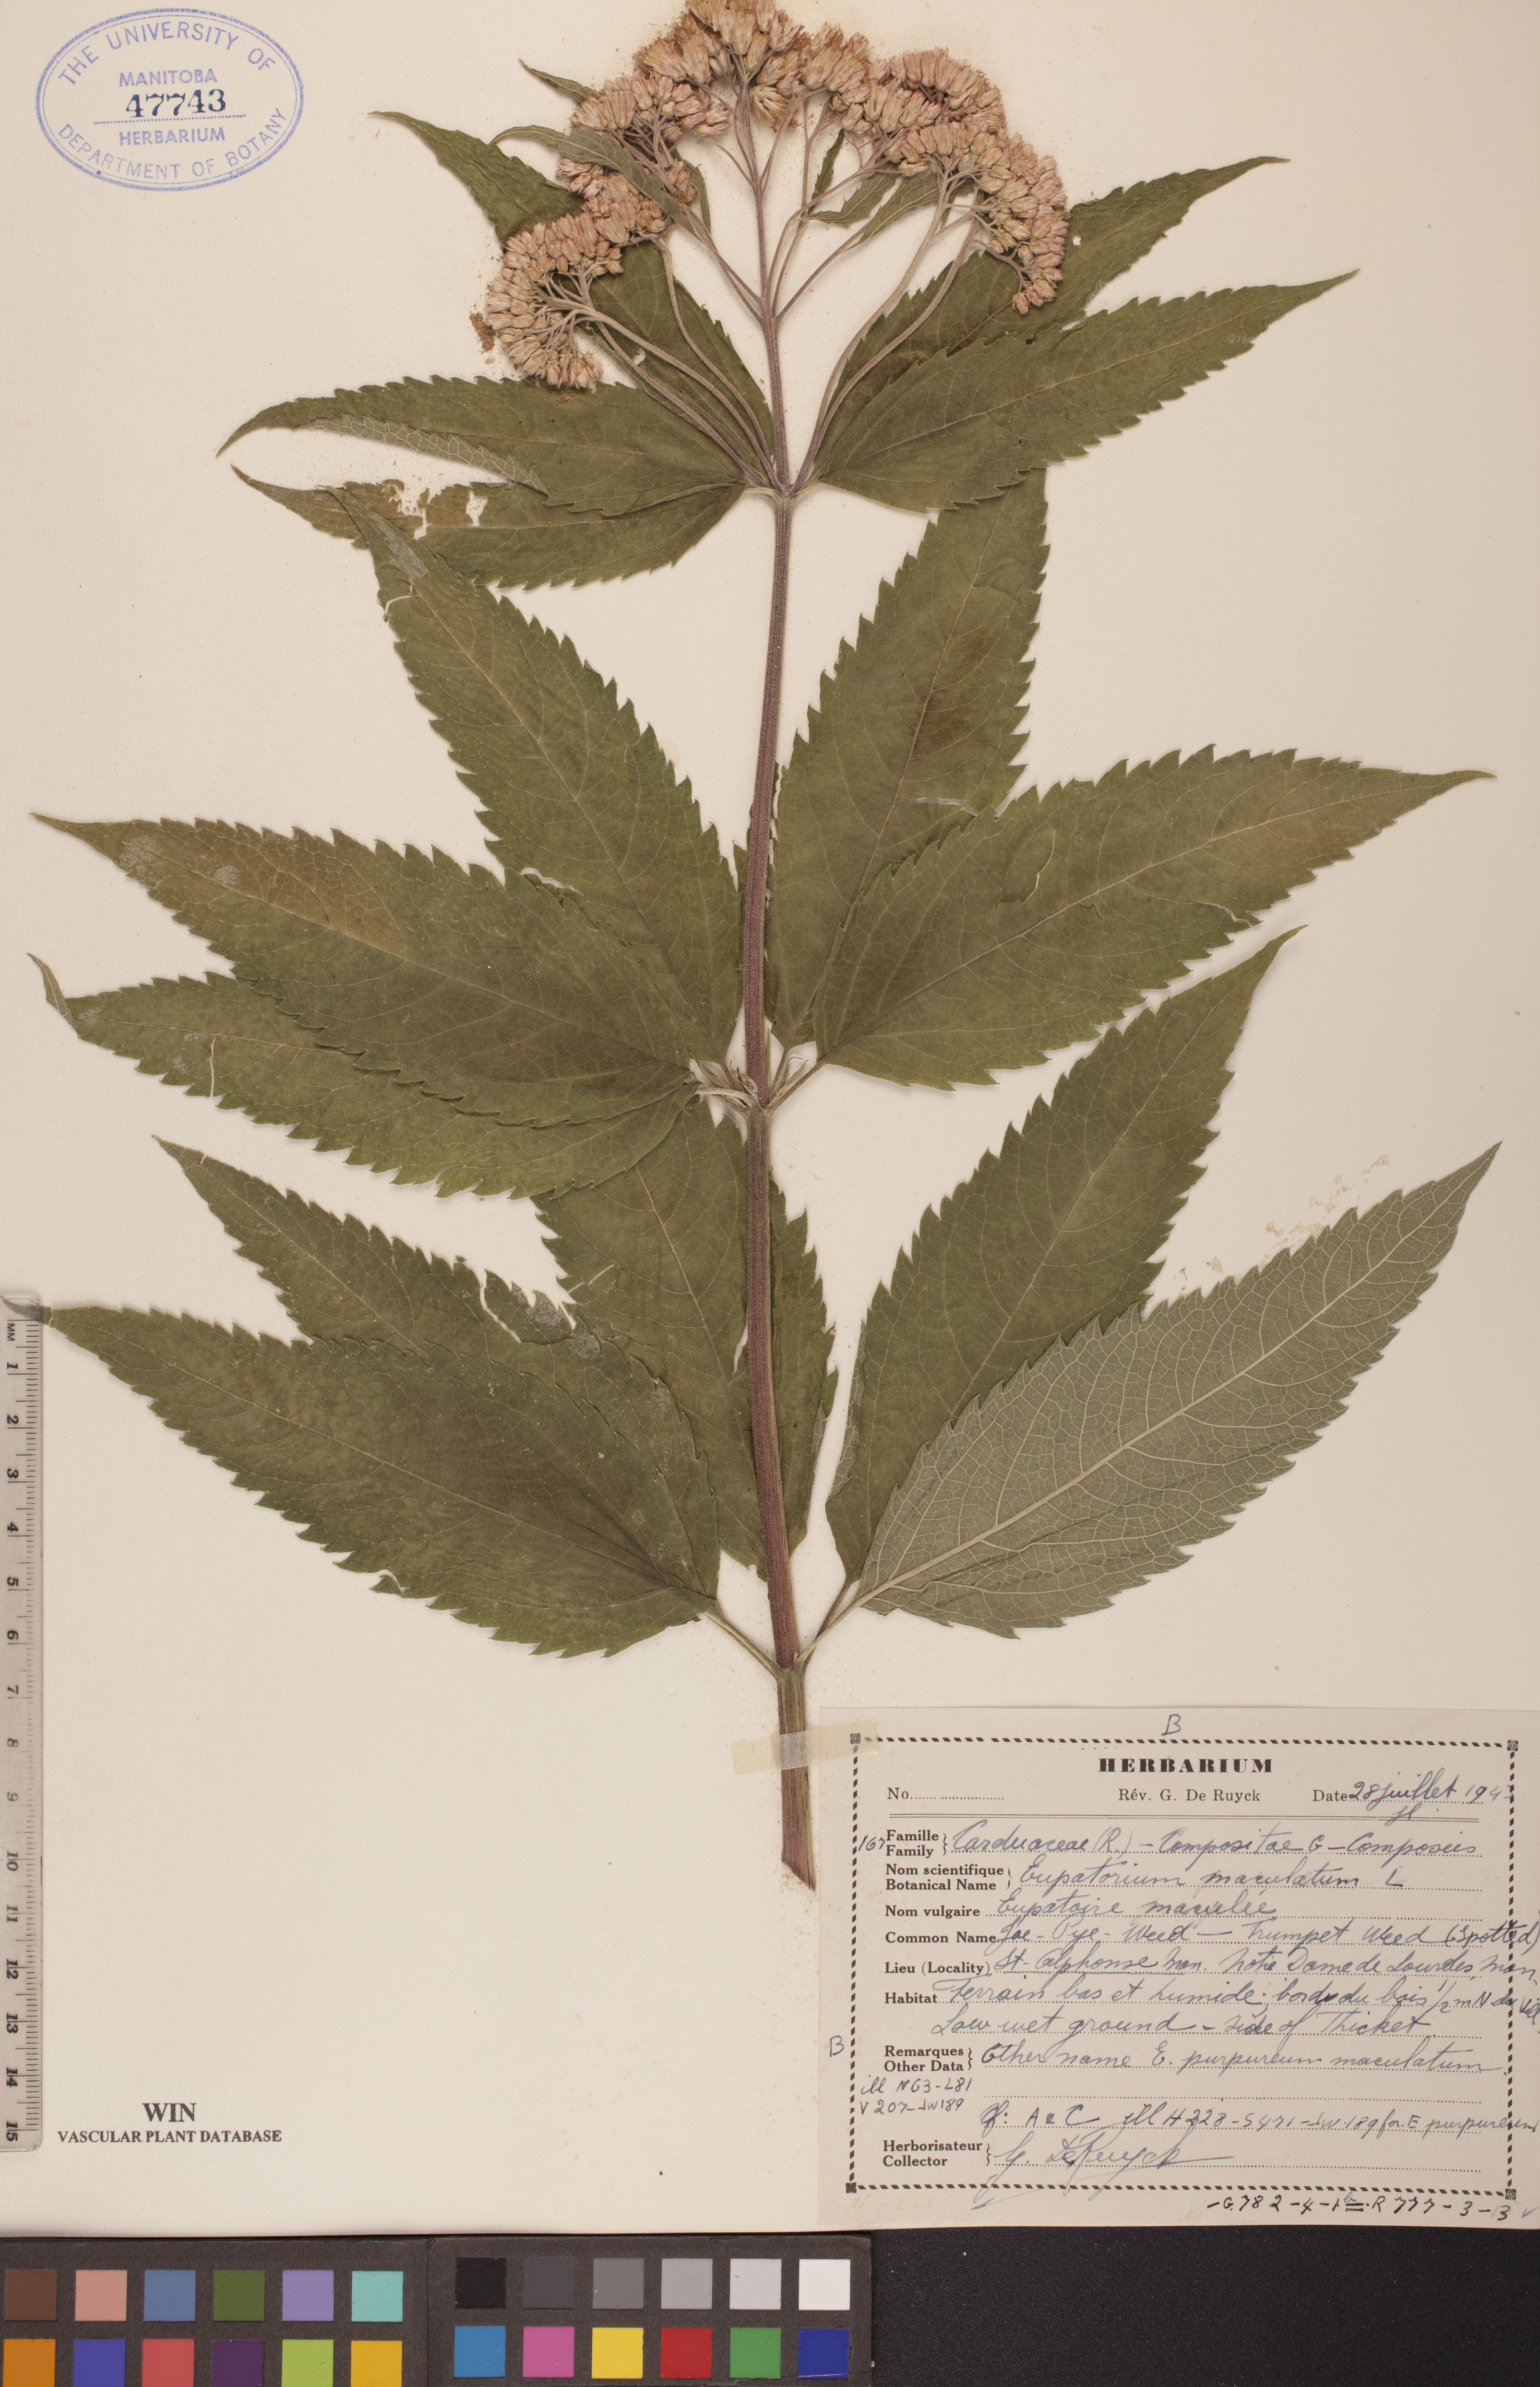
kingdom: Plantae
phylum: Tracheophyta
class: Magnoliopsida
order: Asterales
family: Asteraceae
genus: Eutrochium
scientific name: Eutrochium maculatum
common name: Spotted joe pye weed
